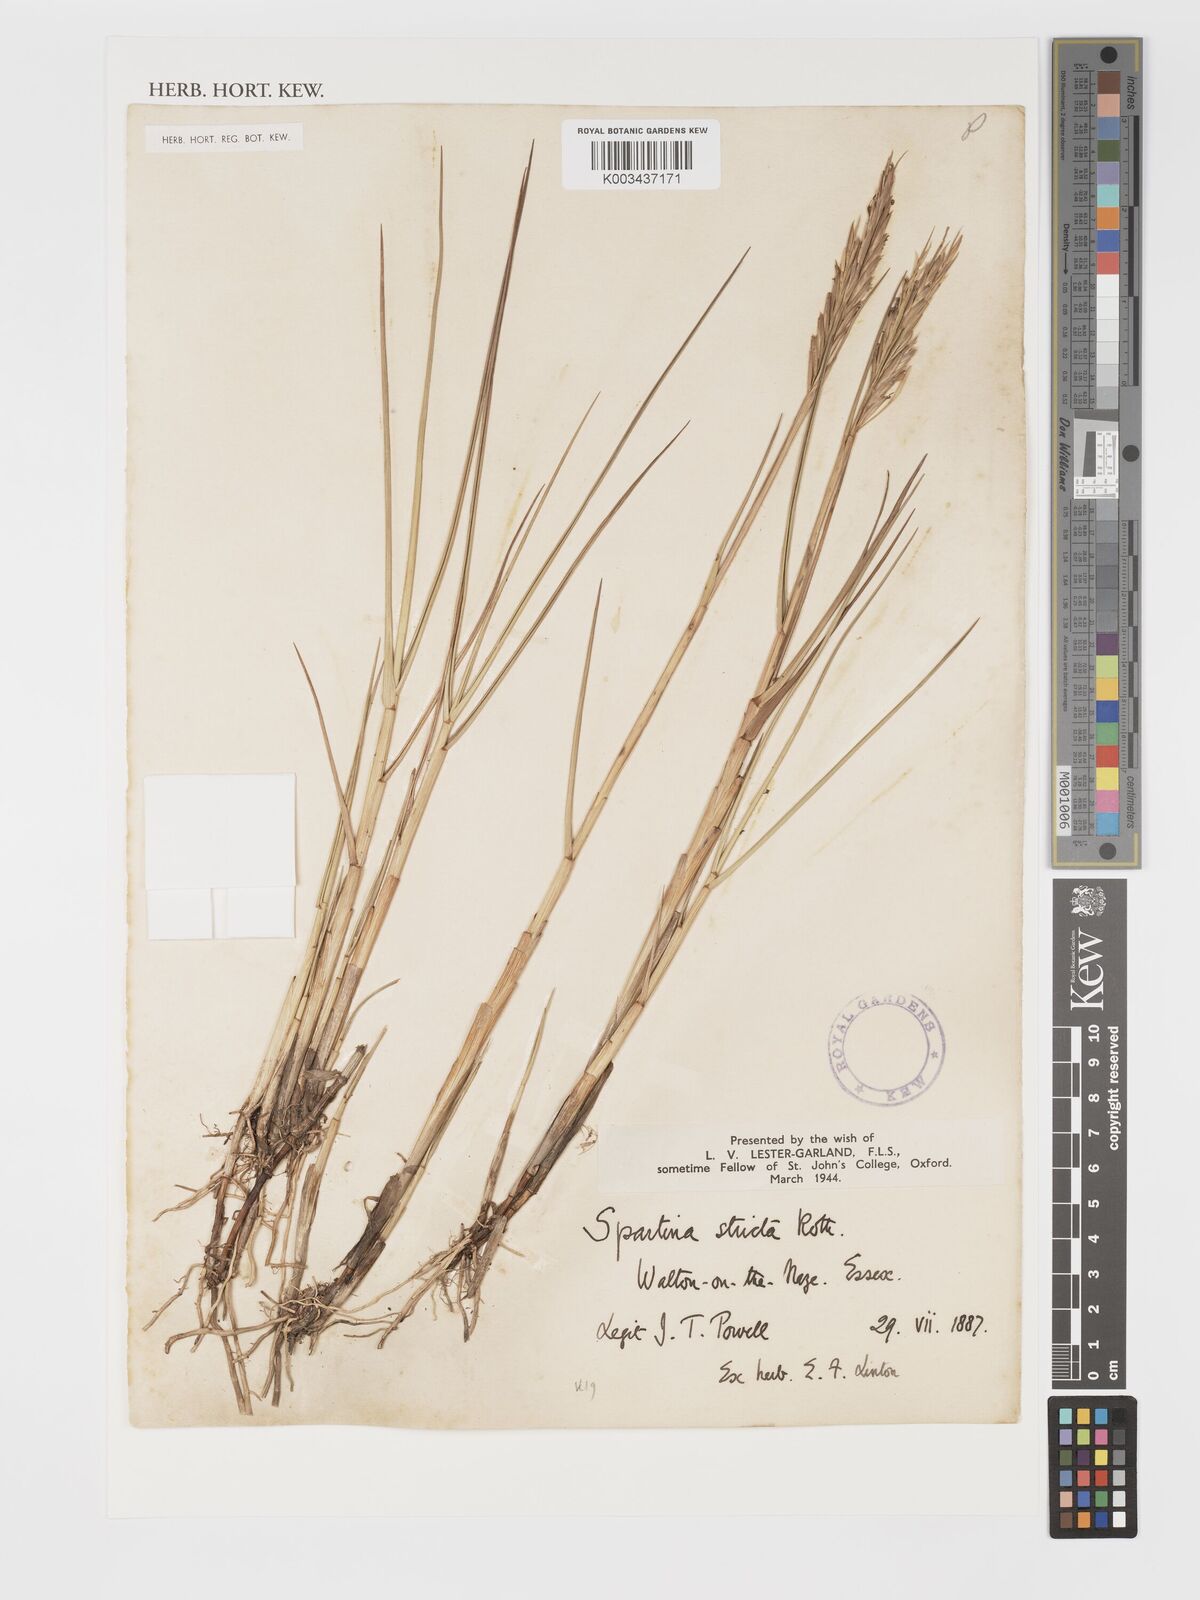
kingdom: Plantae
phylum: Tracheophyta
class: Liliopsida
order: Poales
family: Poaceae
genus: Sporobolus
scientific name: Sporobolus maritimus
